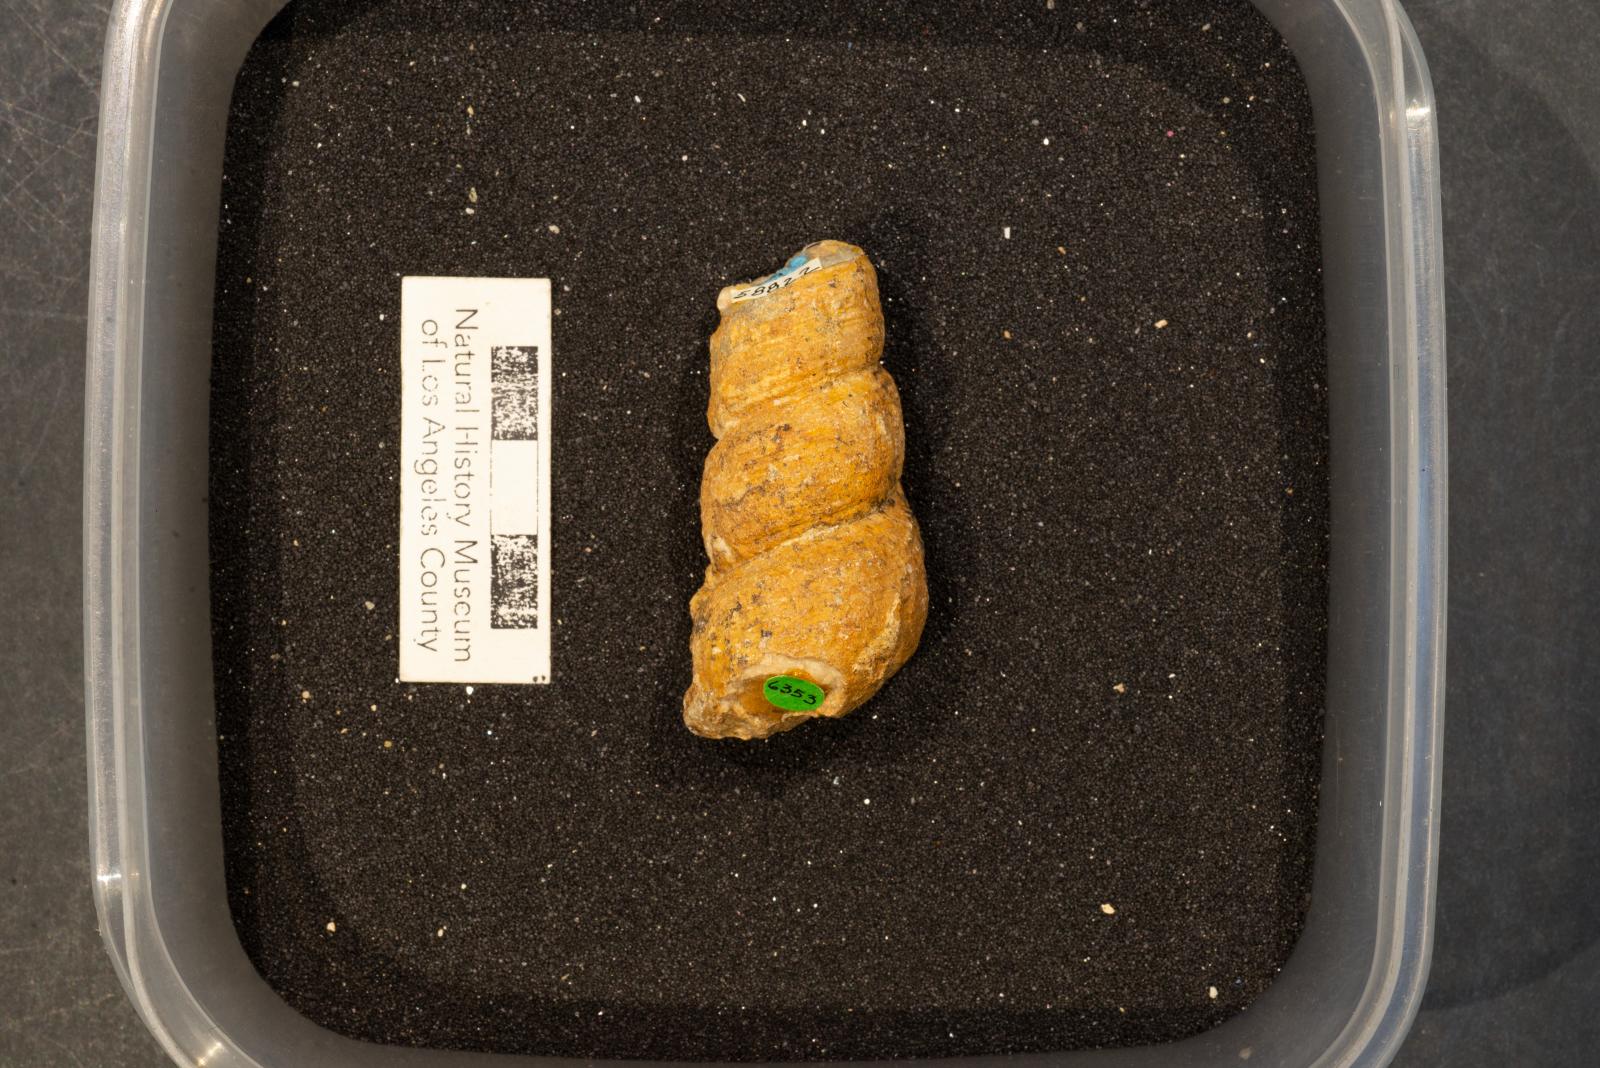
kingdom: Animalia
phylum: Mollusca
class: Gastropoda
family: Turritellidae
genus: Turritella
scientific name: Turritella chaneyi
